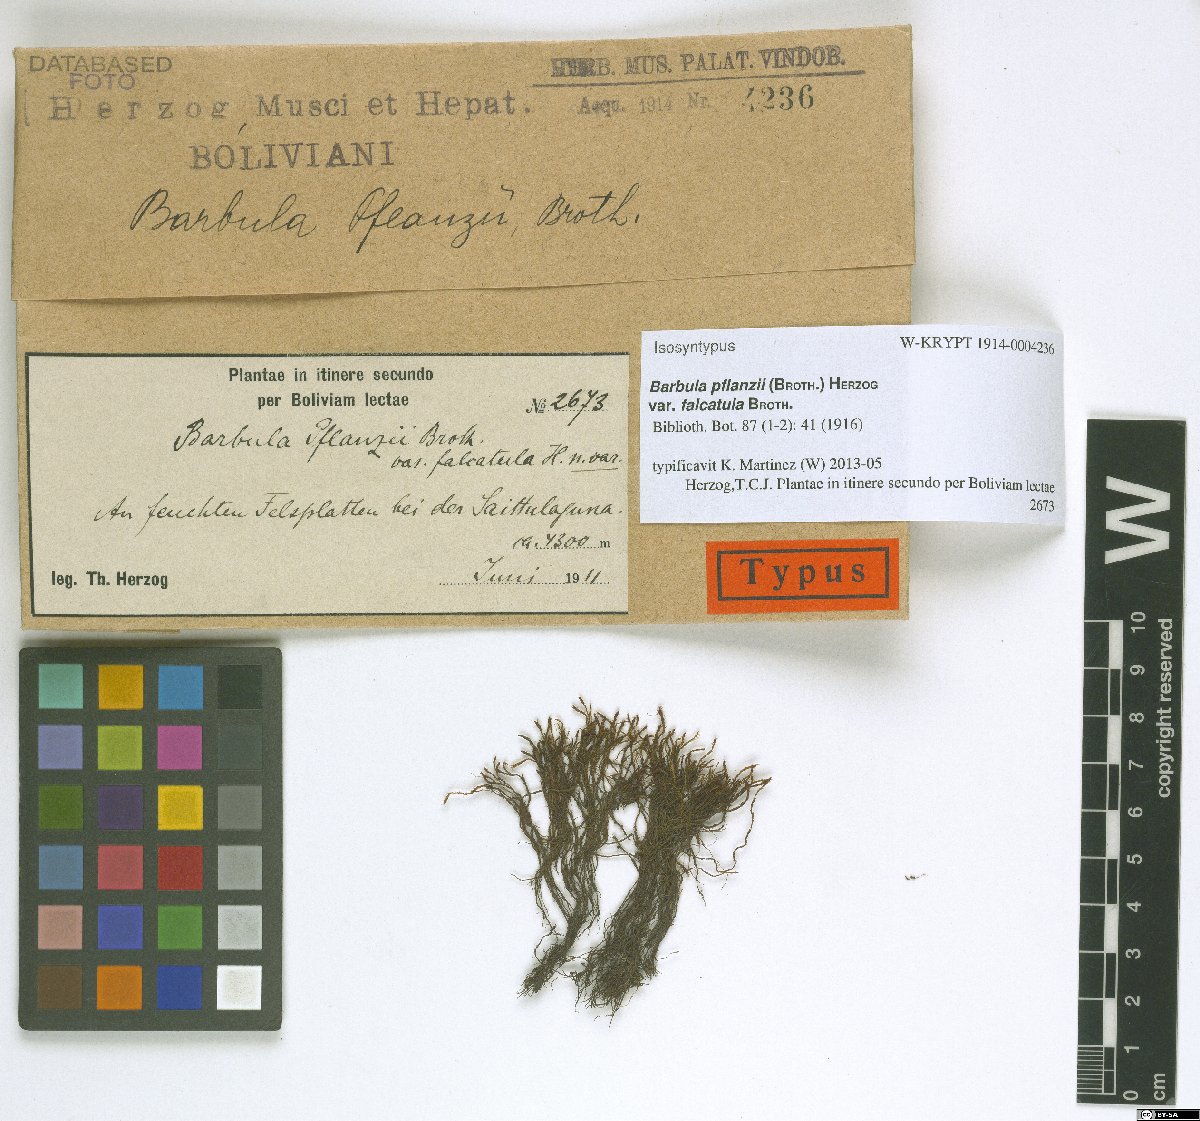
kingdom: Plantae
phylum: Bryophyta
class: Bryopsida
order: Pottiales
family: Pottiaceae
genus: Tortula
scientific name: Tortula vahliana
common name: Chalk screw-moss
